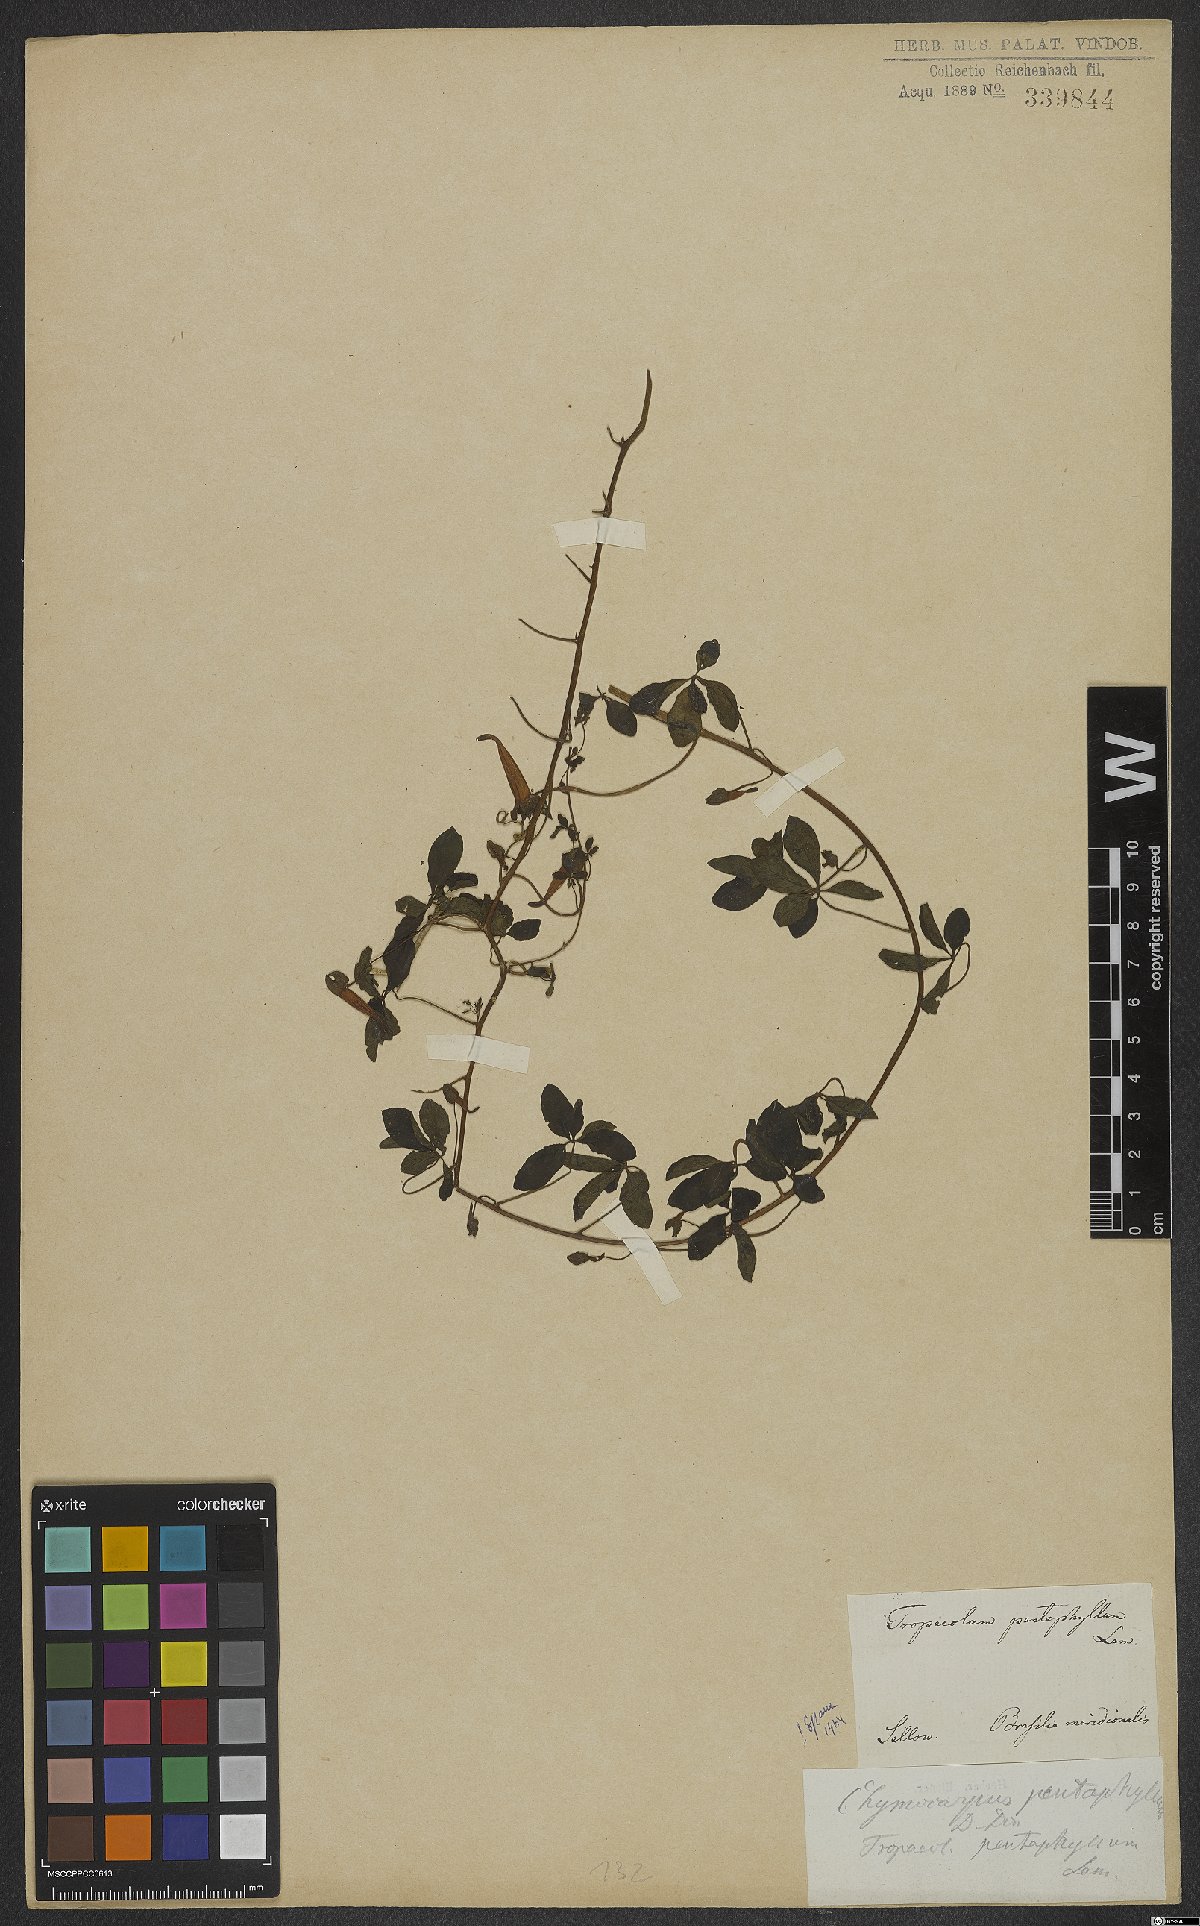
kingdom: Plantae
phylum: Tracheophyta
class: Magnoliopsida
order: Brassicales
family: Tropaeolaceae
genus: Tropaeolum
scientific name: Tropaeolum pentaphyllum
